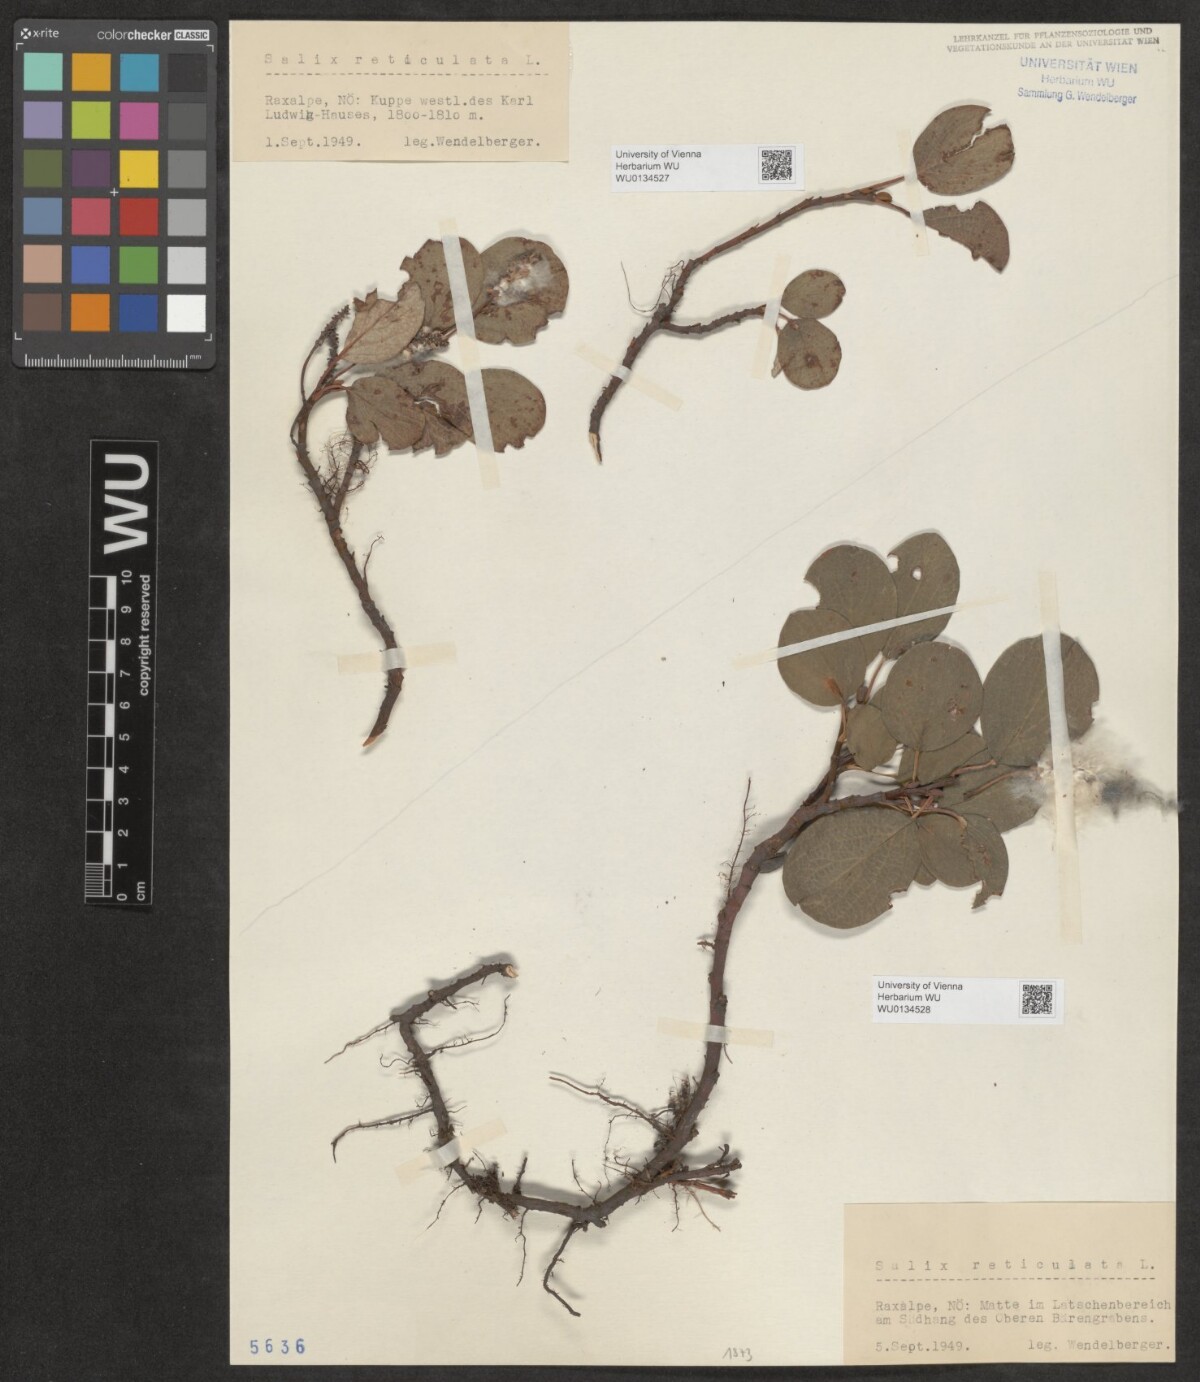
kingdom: Plantae
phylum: Tracheophyta
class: Magnoliopsida
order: Malpighiales
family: Salicaceae
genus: Salix
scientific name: Salix reticulata
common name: Net-leaved willow
